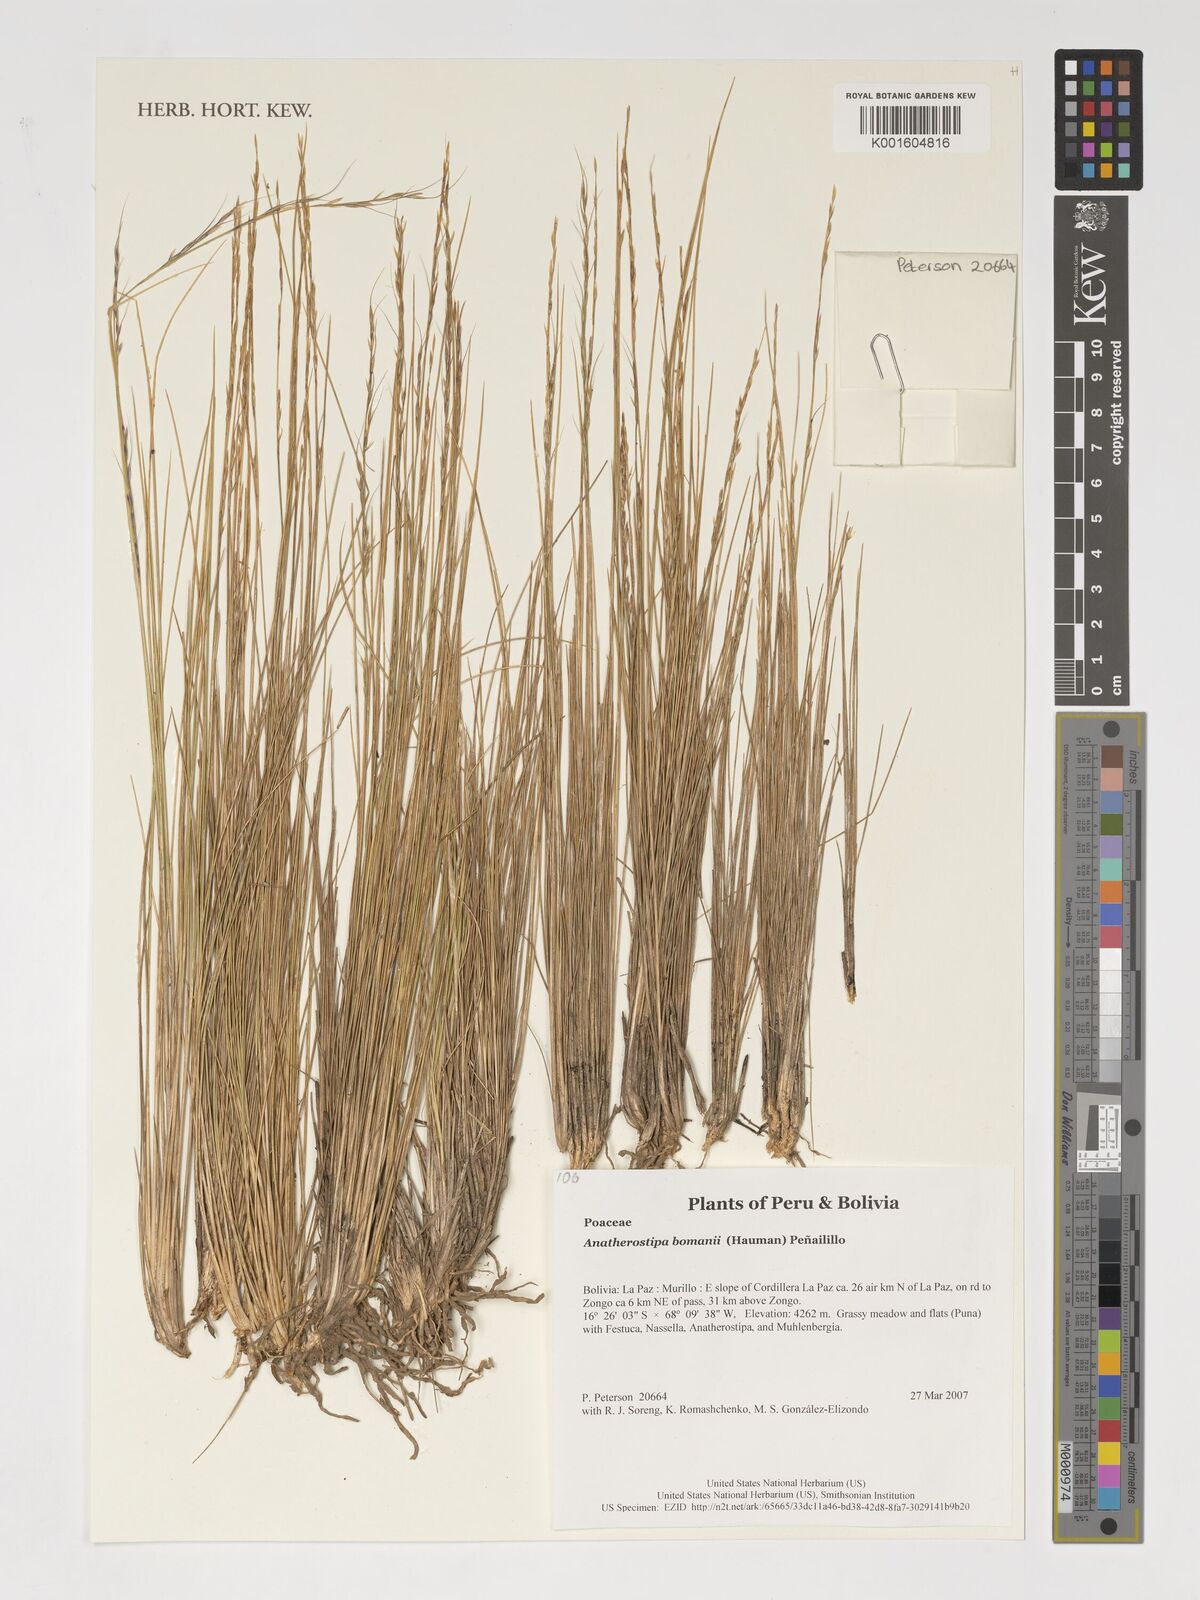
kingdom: Plantae
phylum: Tracheophyta
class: Liliopsida
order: Poales
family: Poaceae
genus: Stipa
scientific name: Stipa bomanii
